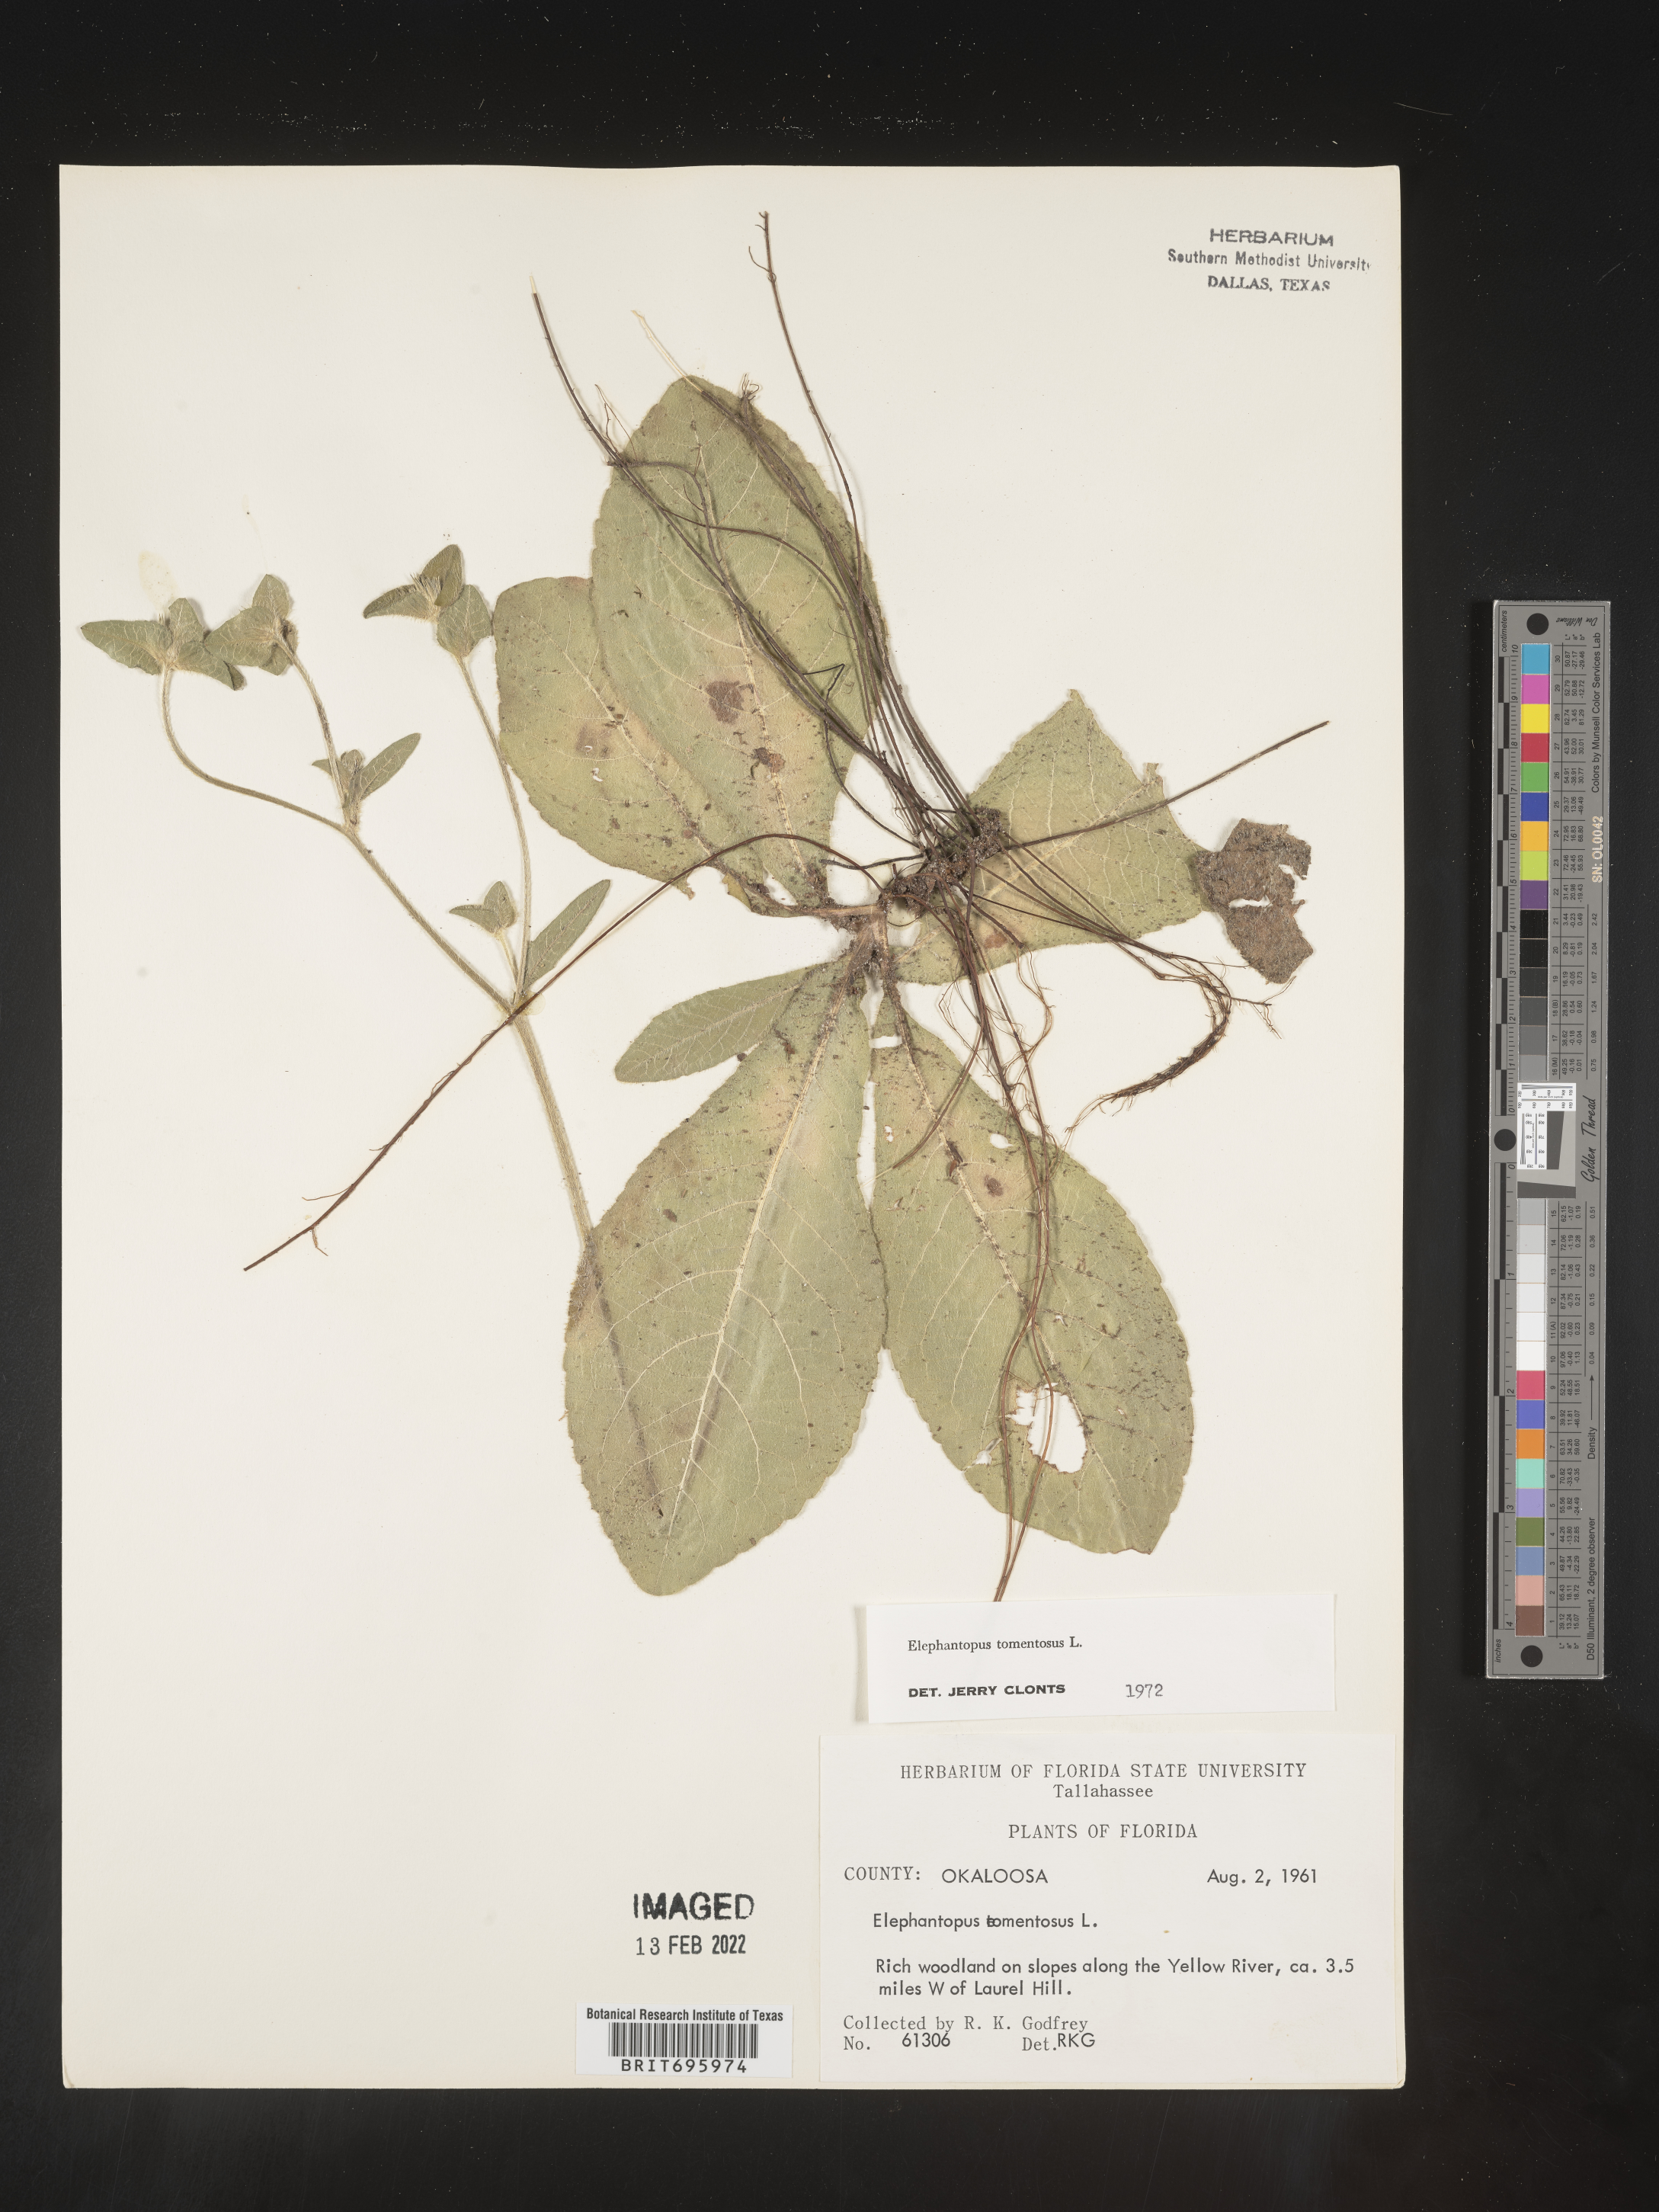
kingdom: Plantae
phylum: Tracheophyta
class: Magnoliopsida
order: Asterales
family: Asteraceae
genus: Elephantopus
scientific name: Elephantopus tomentosus
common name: Tobacco-weed
